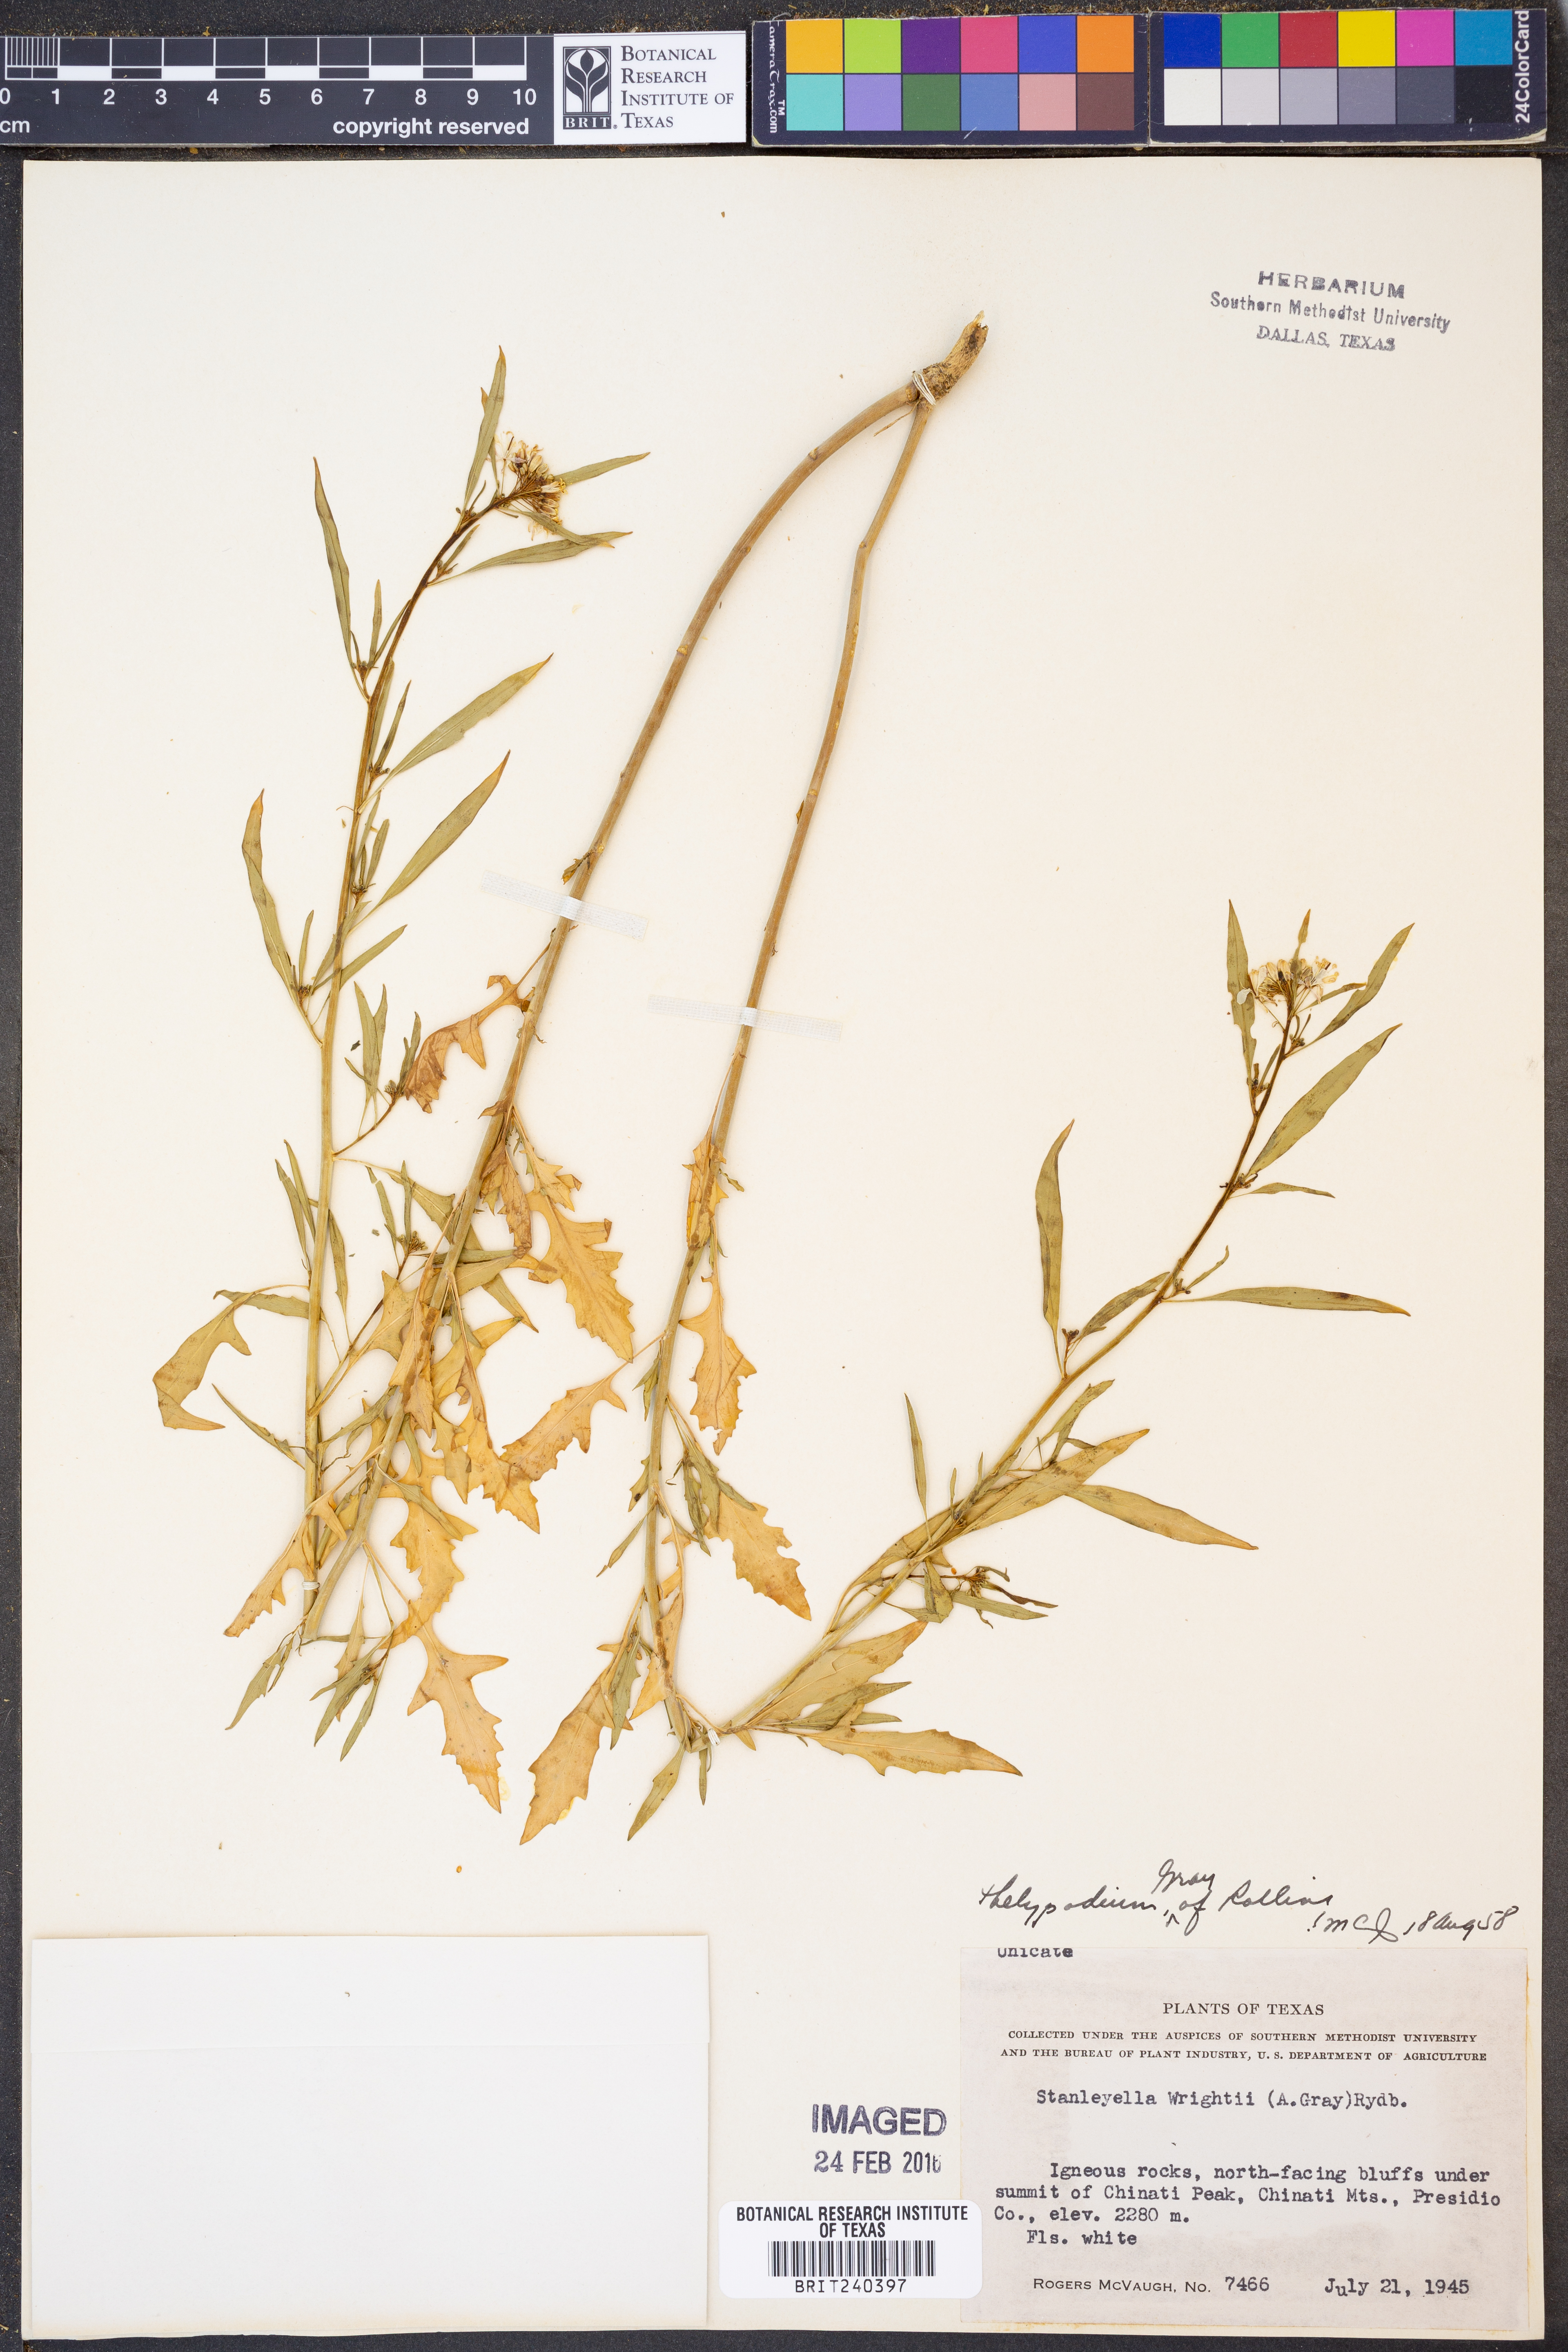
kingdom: Plantae
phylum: Tracheophyta
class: Magnoliopsida
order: Brassicales
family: Brassicaceae
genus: Thelypodium
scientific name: Thelypodium wrightii
